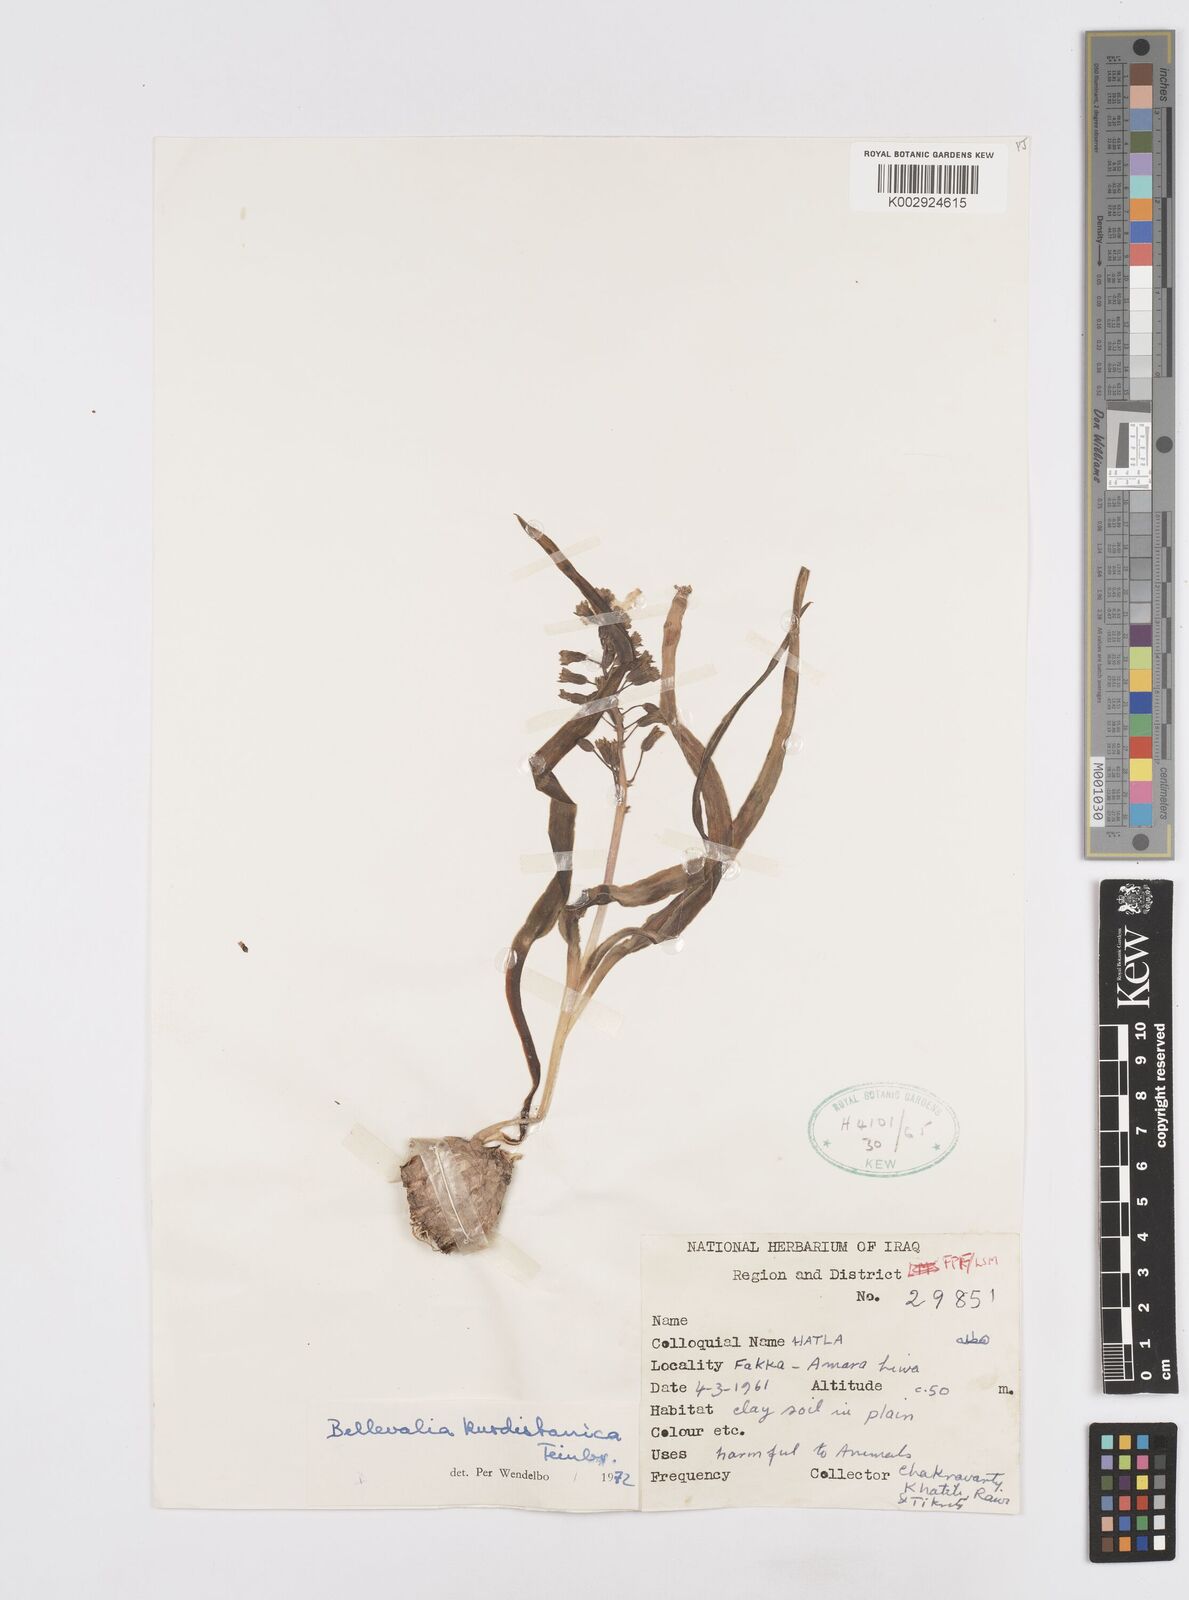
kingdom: Plantae
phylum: Tracheophyta
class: Liliopsida
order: Asparagales
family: Asparagaceae
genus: Bellevalia
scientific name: Bellevalia kurdistanica
